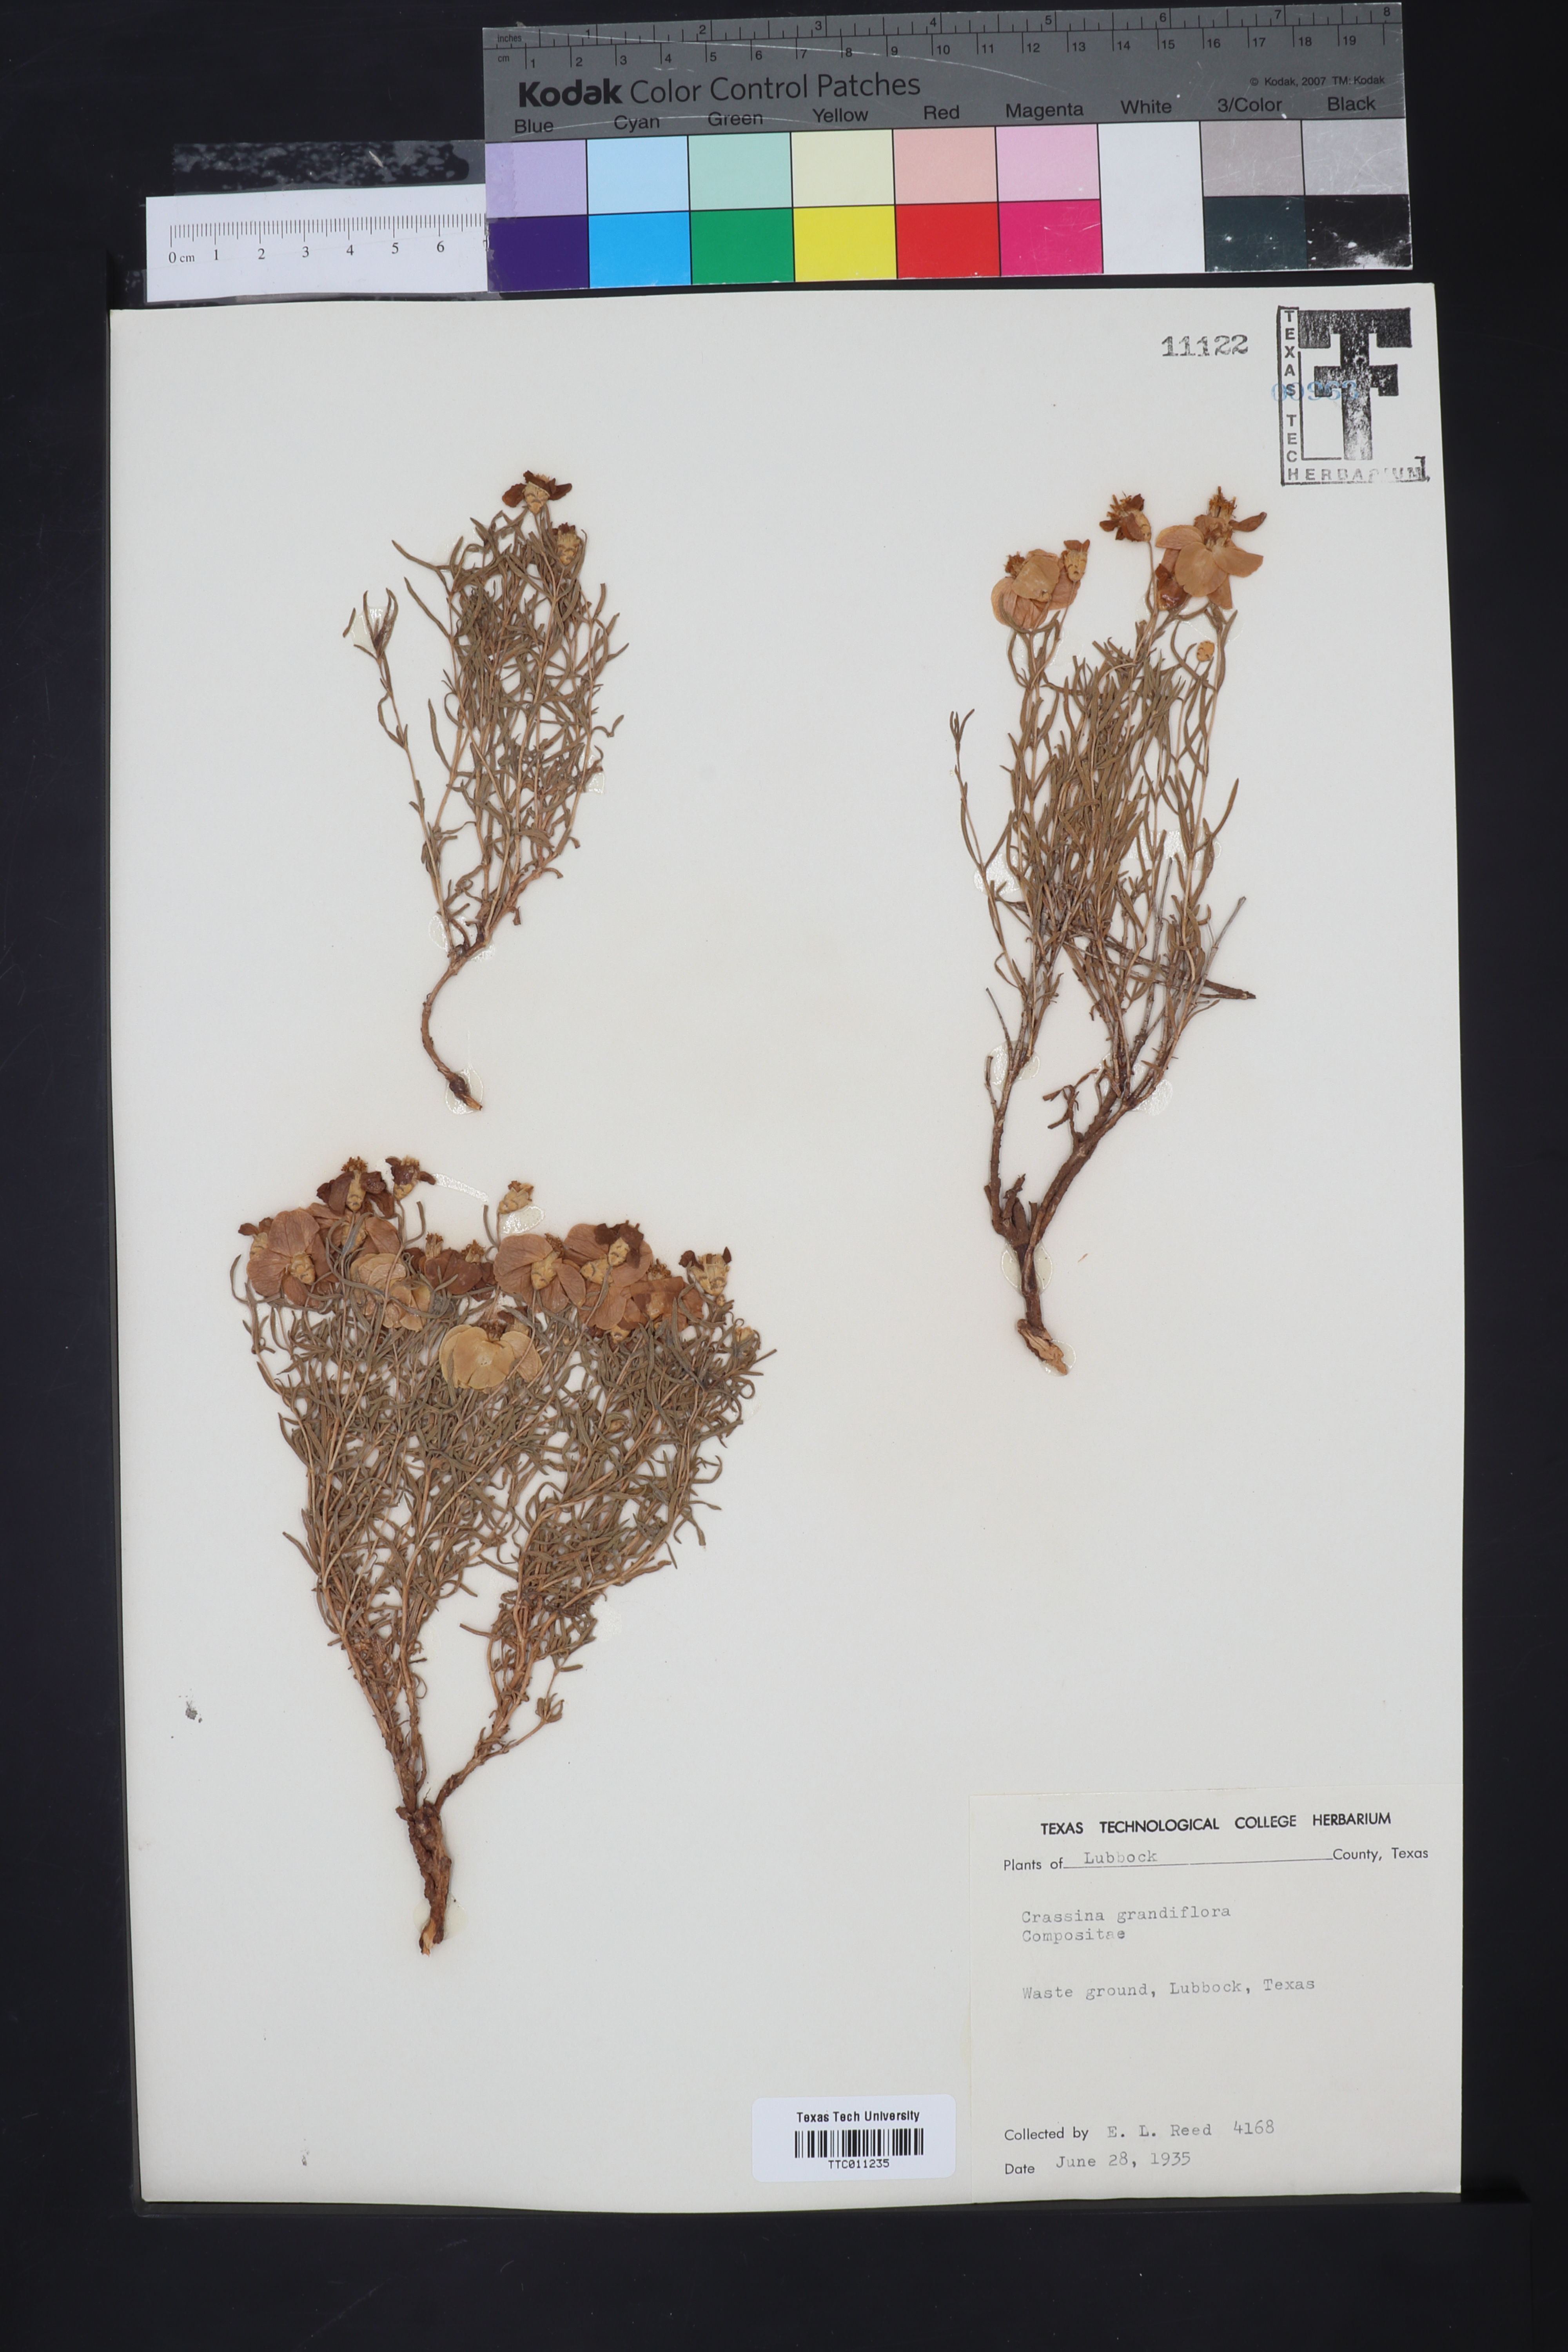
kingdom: Plantae
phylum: Tracheophyta
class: Magnoliopsida
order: Asterales
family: Asteraceae
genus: Zinnia
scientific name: Zinnia grandiflora
